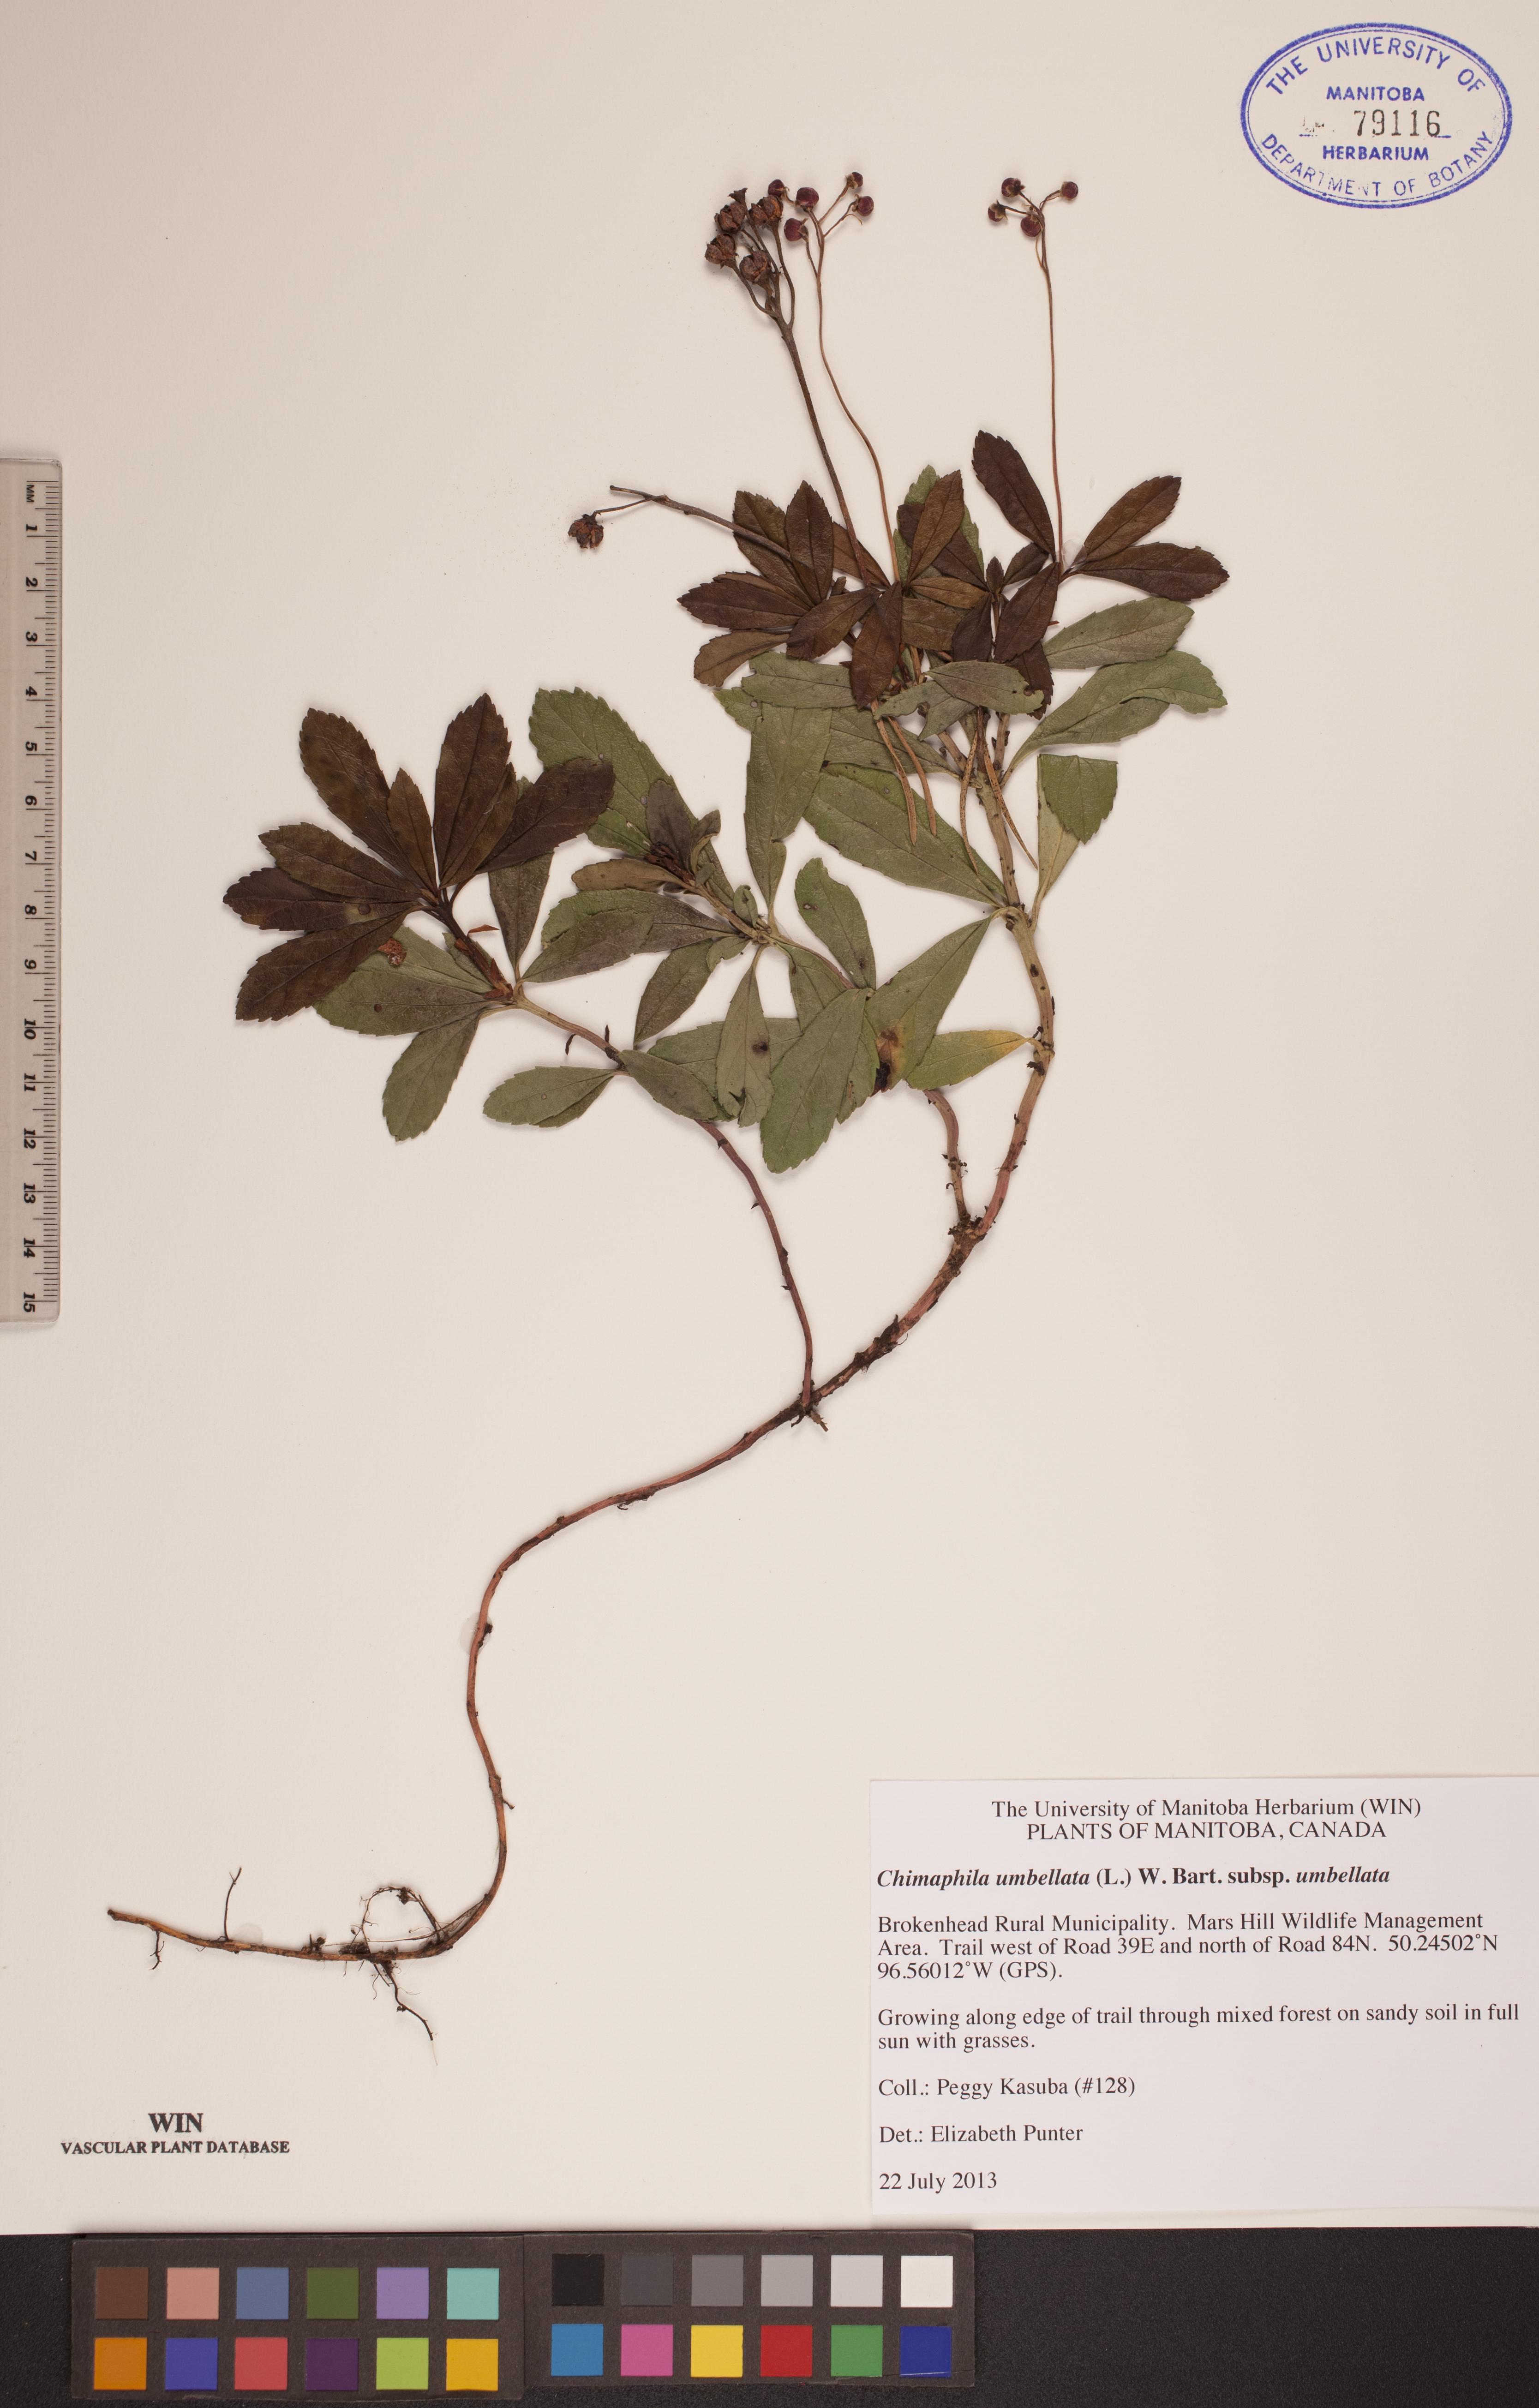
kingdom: Plantae
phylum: Tracheophyta
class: Magnoliopsida
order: Ericales
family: Ericaceae
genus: Chimaphila
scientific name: Chimaphila umbellata
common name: Pipsissewa
